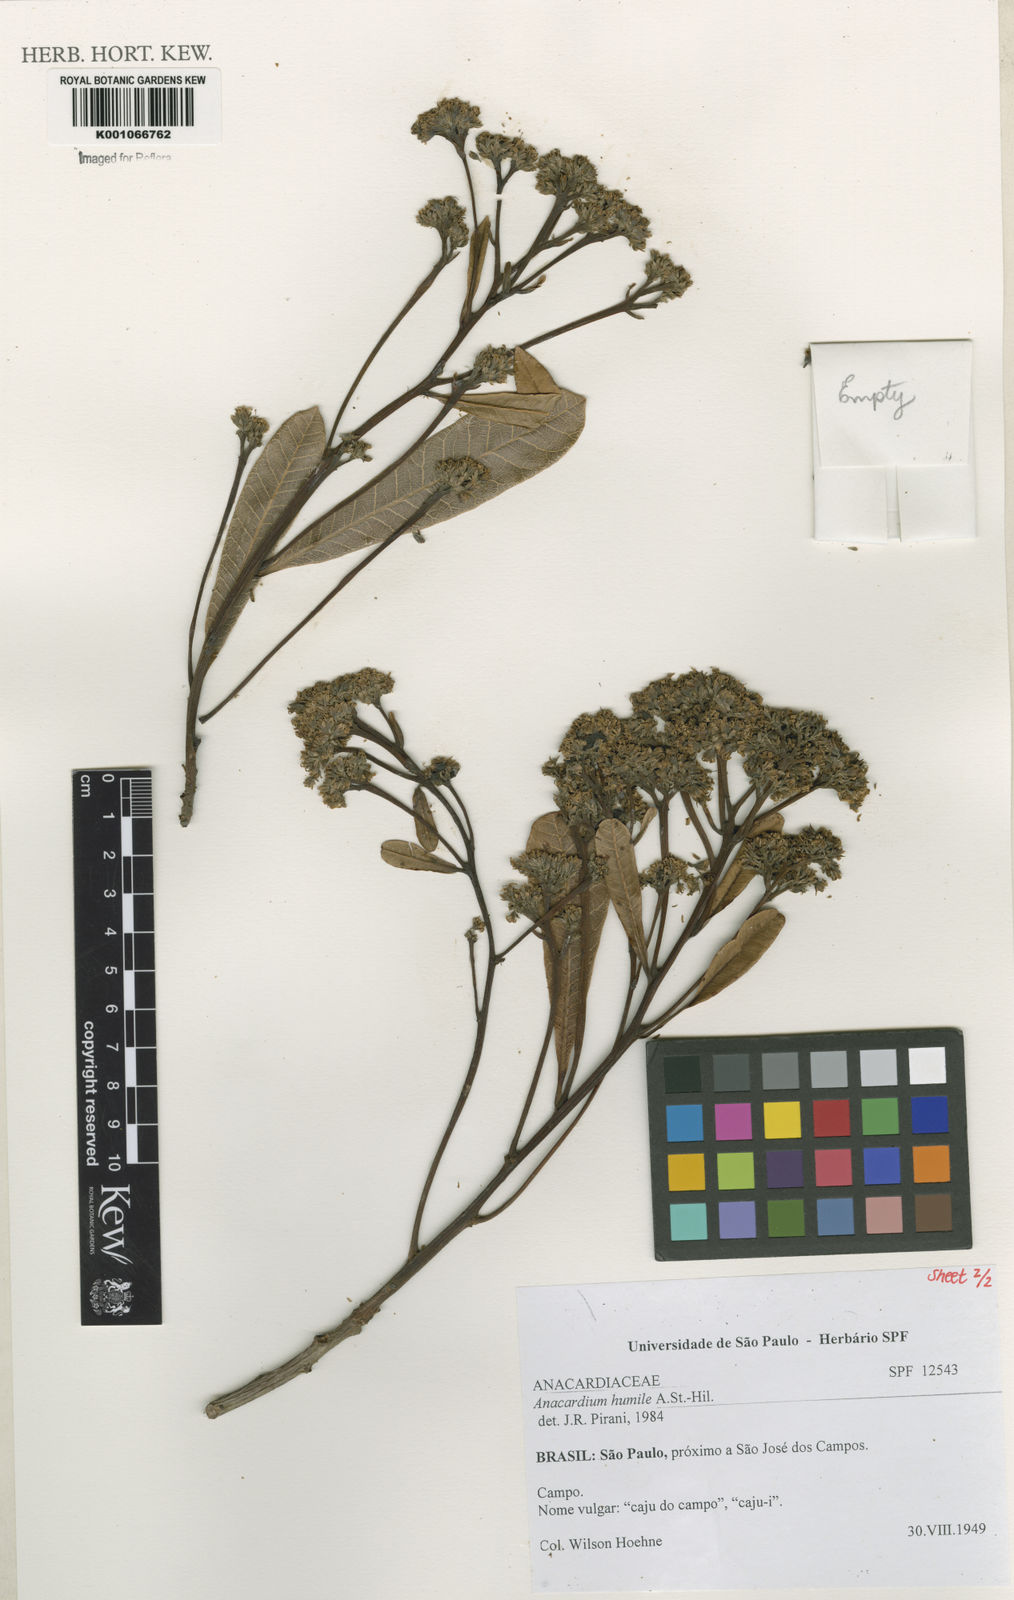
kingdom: Plantae
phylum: Tracheophyta
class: Magnoliopsida
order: Sapindales
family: Anacardiaceae
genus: Anacardium
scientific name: Anacardium humile
